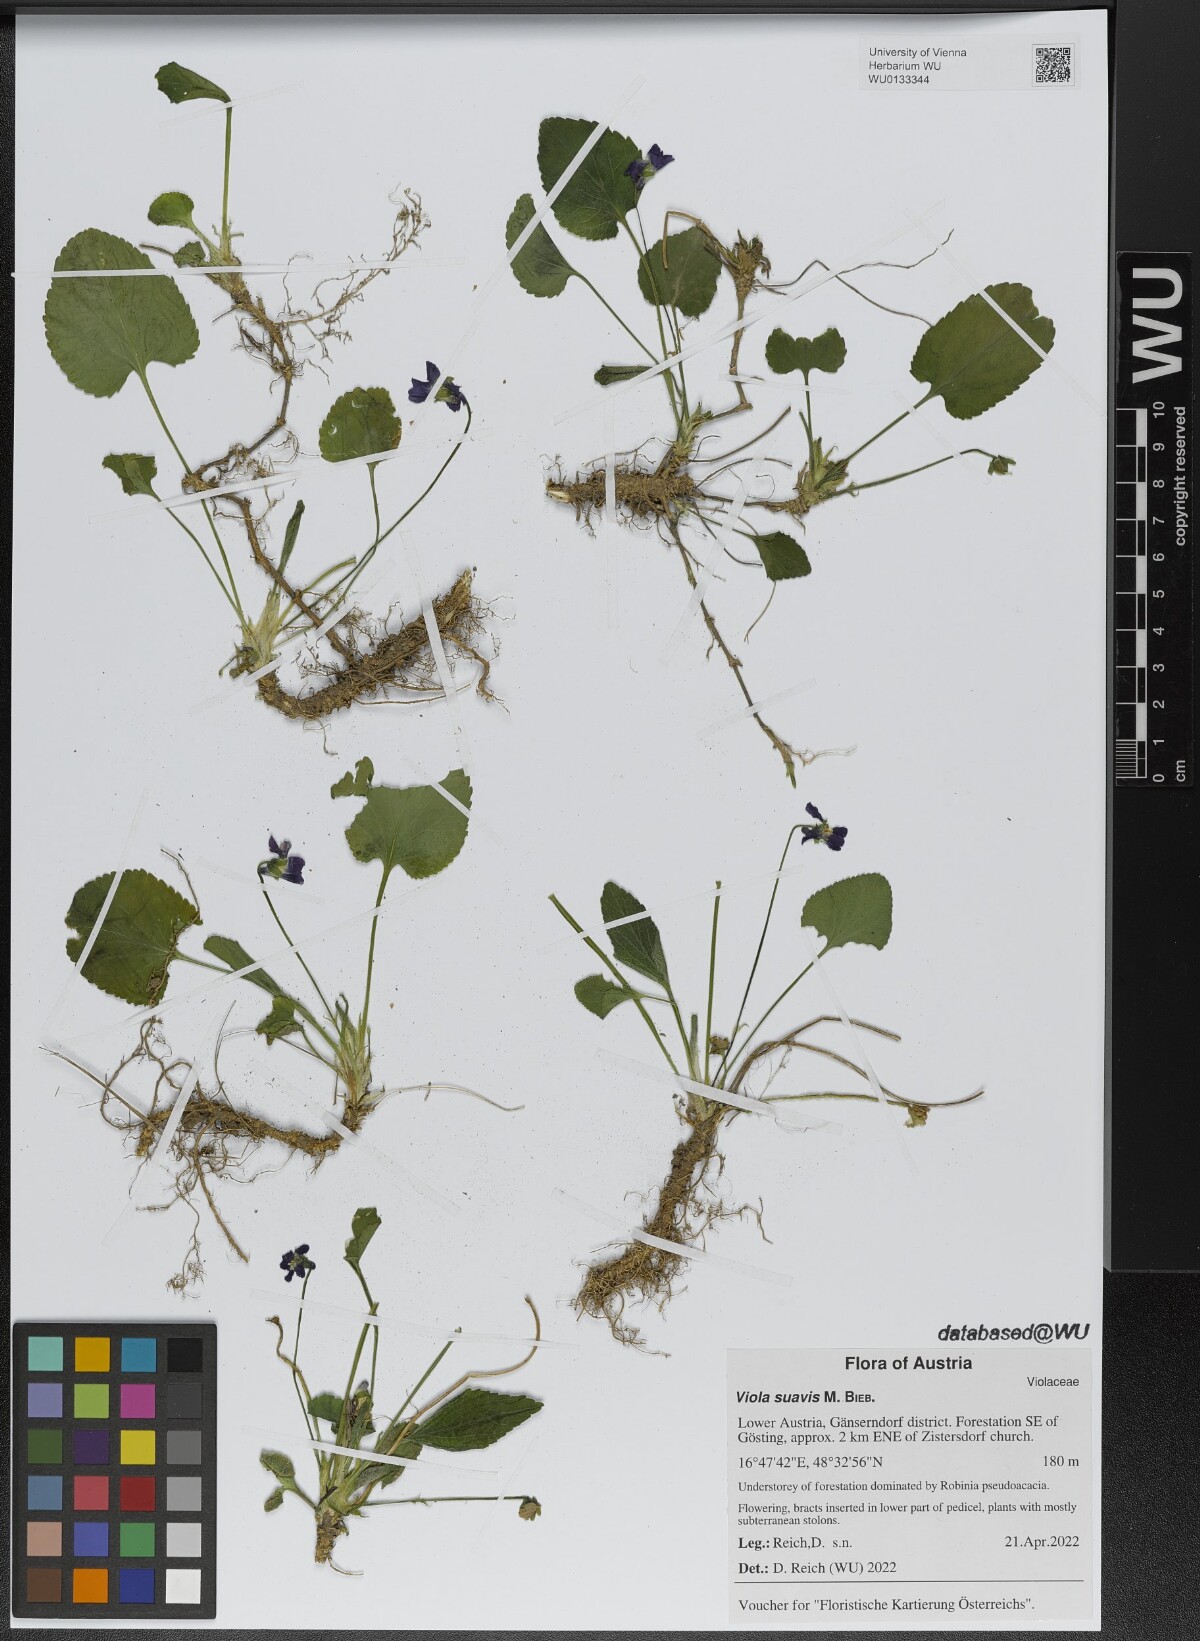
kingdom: Plantae
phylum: Tracheophyta
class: Magnoliopsida
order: Malpighiales
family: Violaceae
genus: Viola
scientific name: Viola suavis
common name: Russian violet
